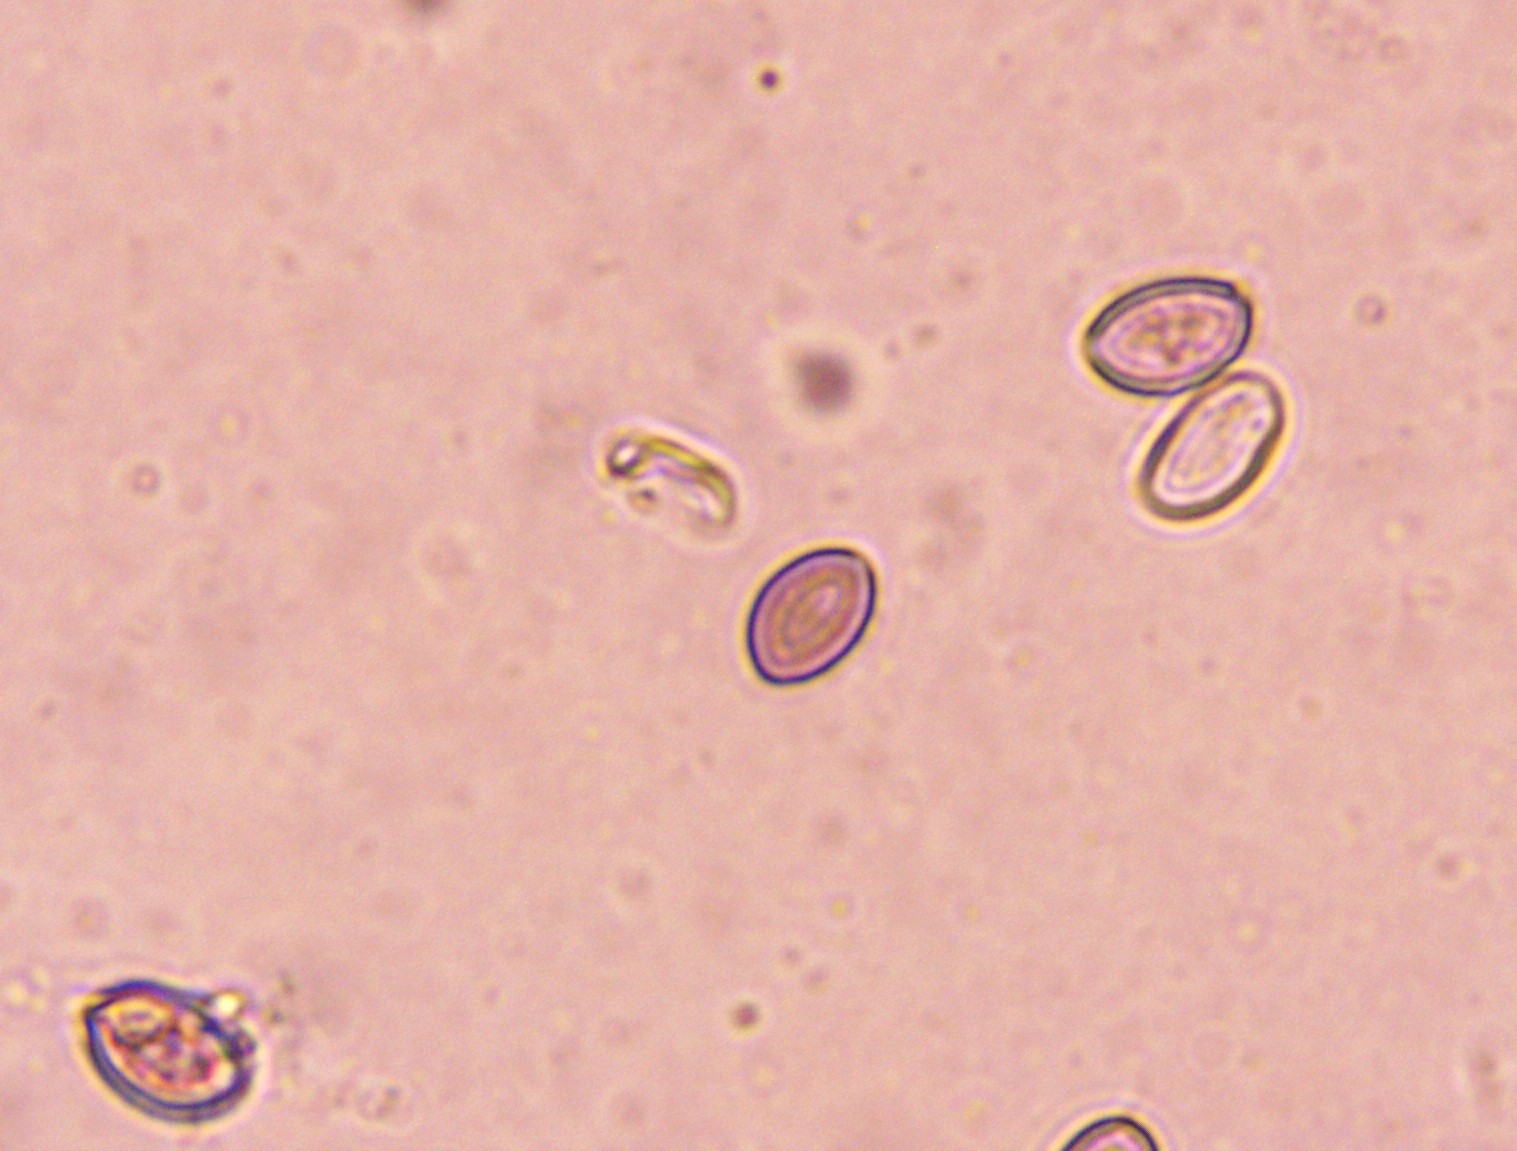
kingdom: Fungi
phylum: Basidiomycota
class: Agaricomycetes
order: Agaricales
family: Strophariaceae
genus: Deconica
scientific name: Deconica montana
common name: rødbrun stråhat
